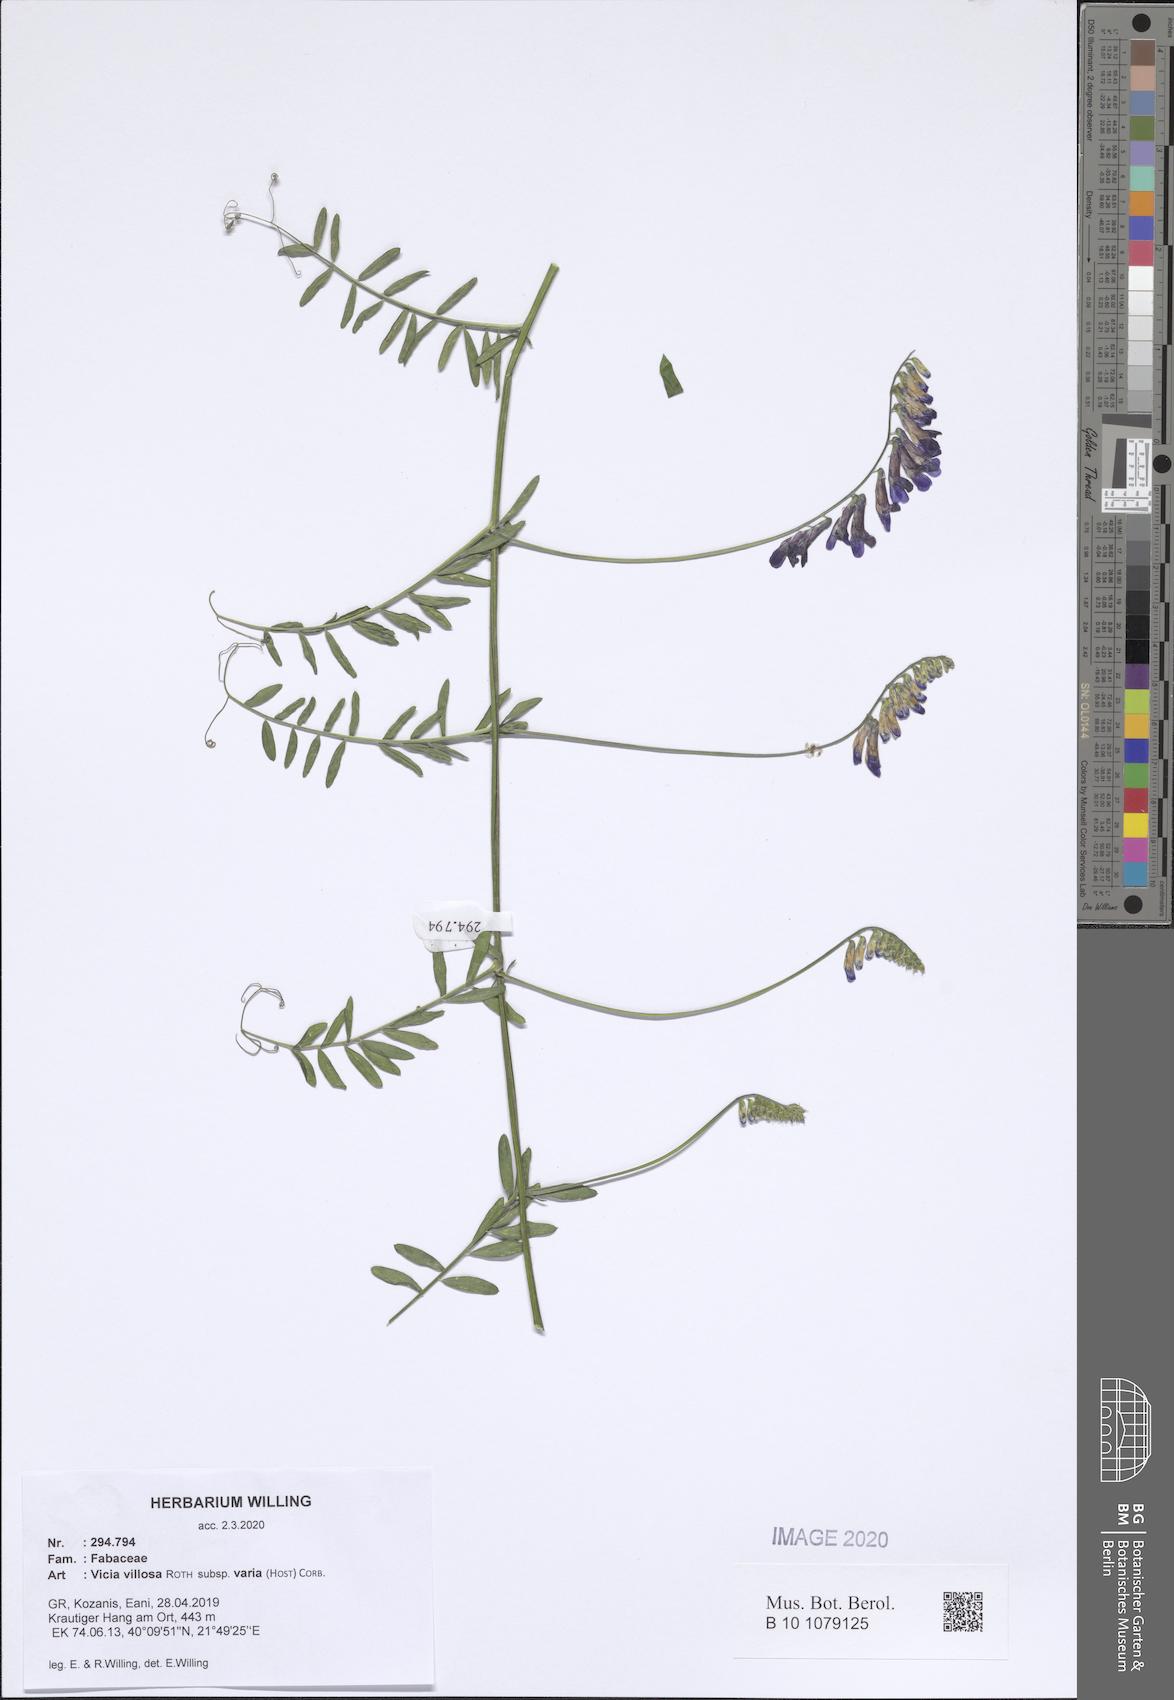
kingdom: Plantae
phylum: Tracheophyta
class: Magnoliopsida
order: Fabales
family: Fabaceae
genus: Vicia
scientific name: Vicia villosa
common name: Fodder vetch
